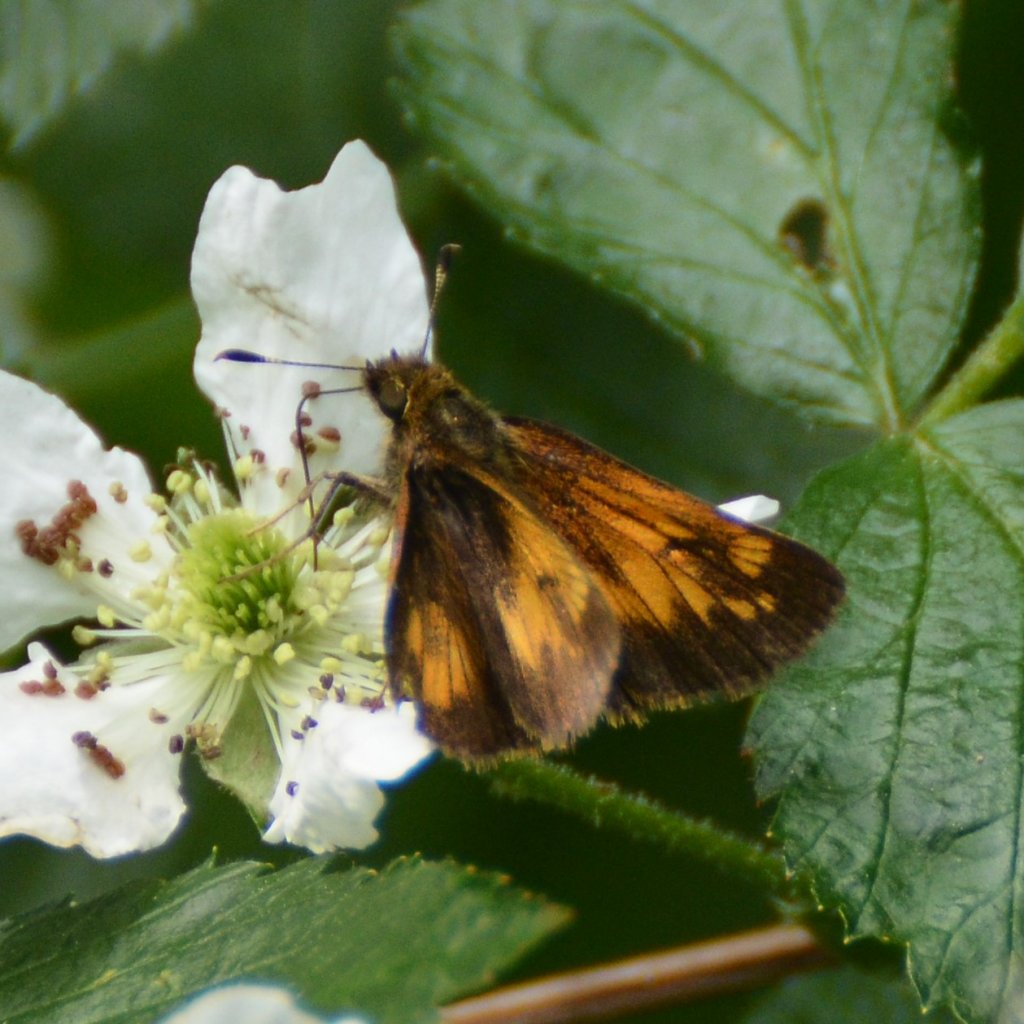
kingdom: Animalia
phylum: Arthropoda
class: Insecta
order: Lepidoptera
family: Hesperiidae
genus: Lon
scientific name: Lon hobomok
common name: Hobomok Skipper
